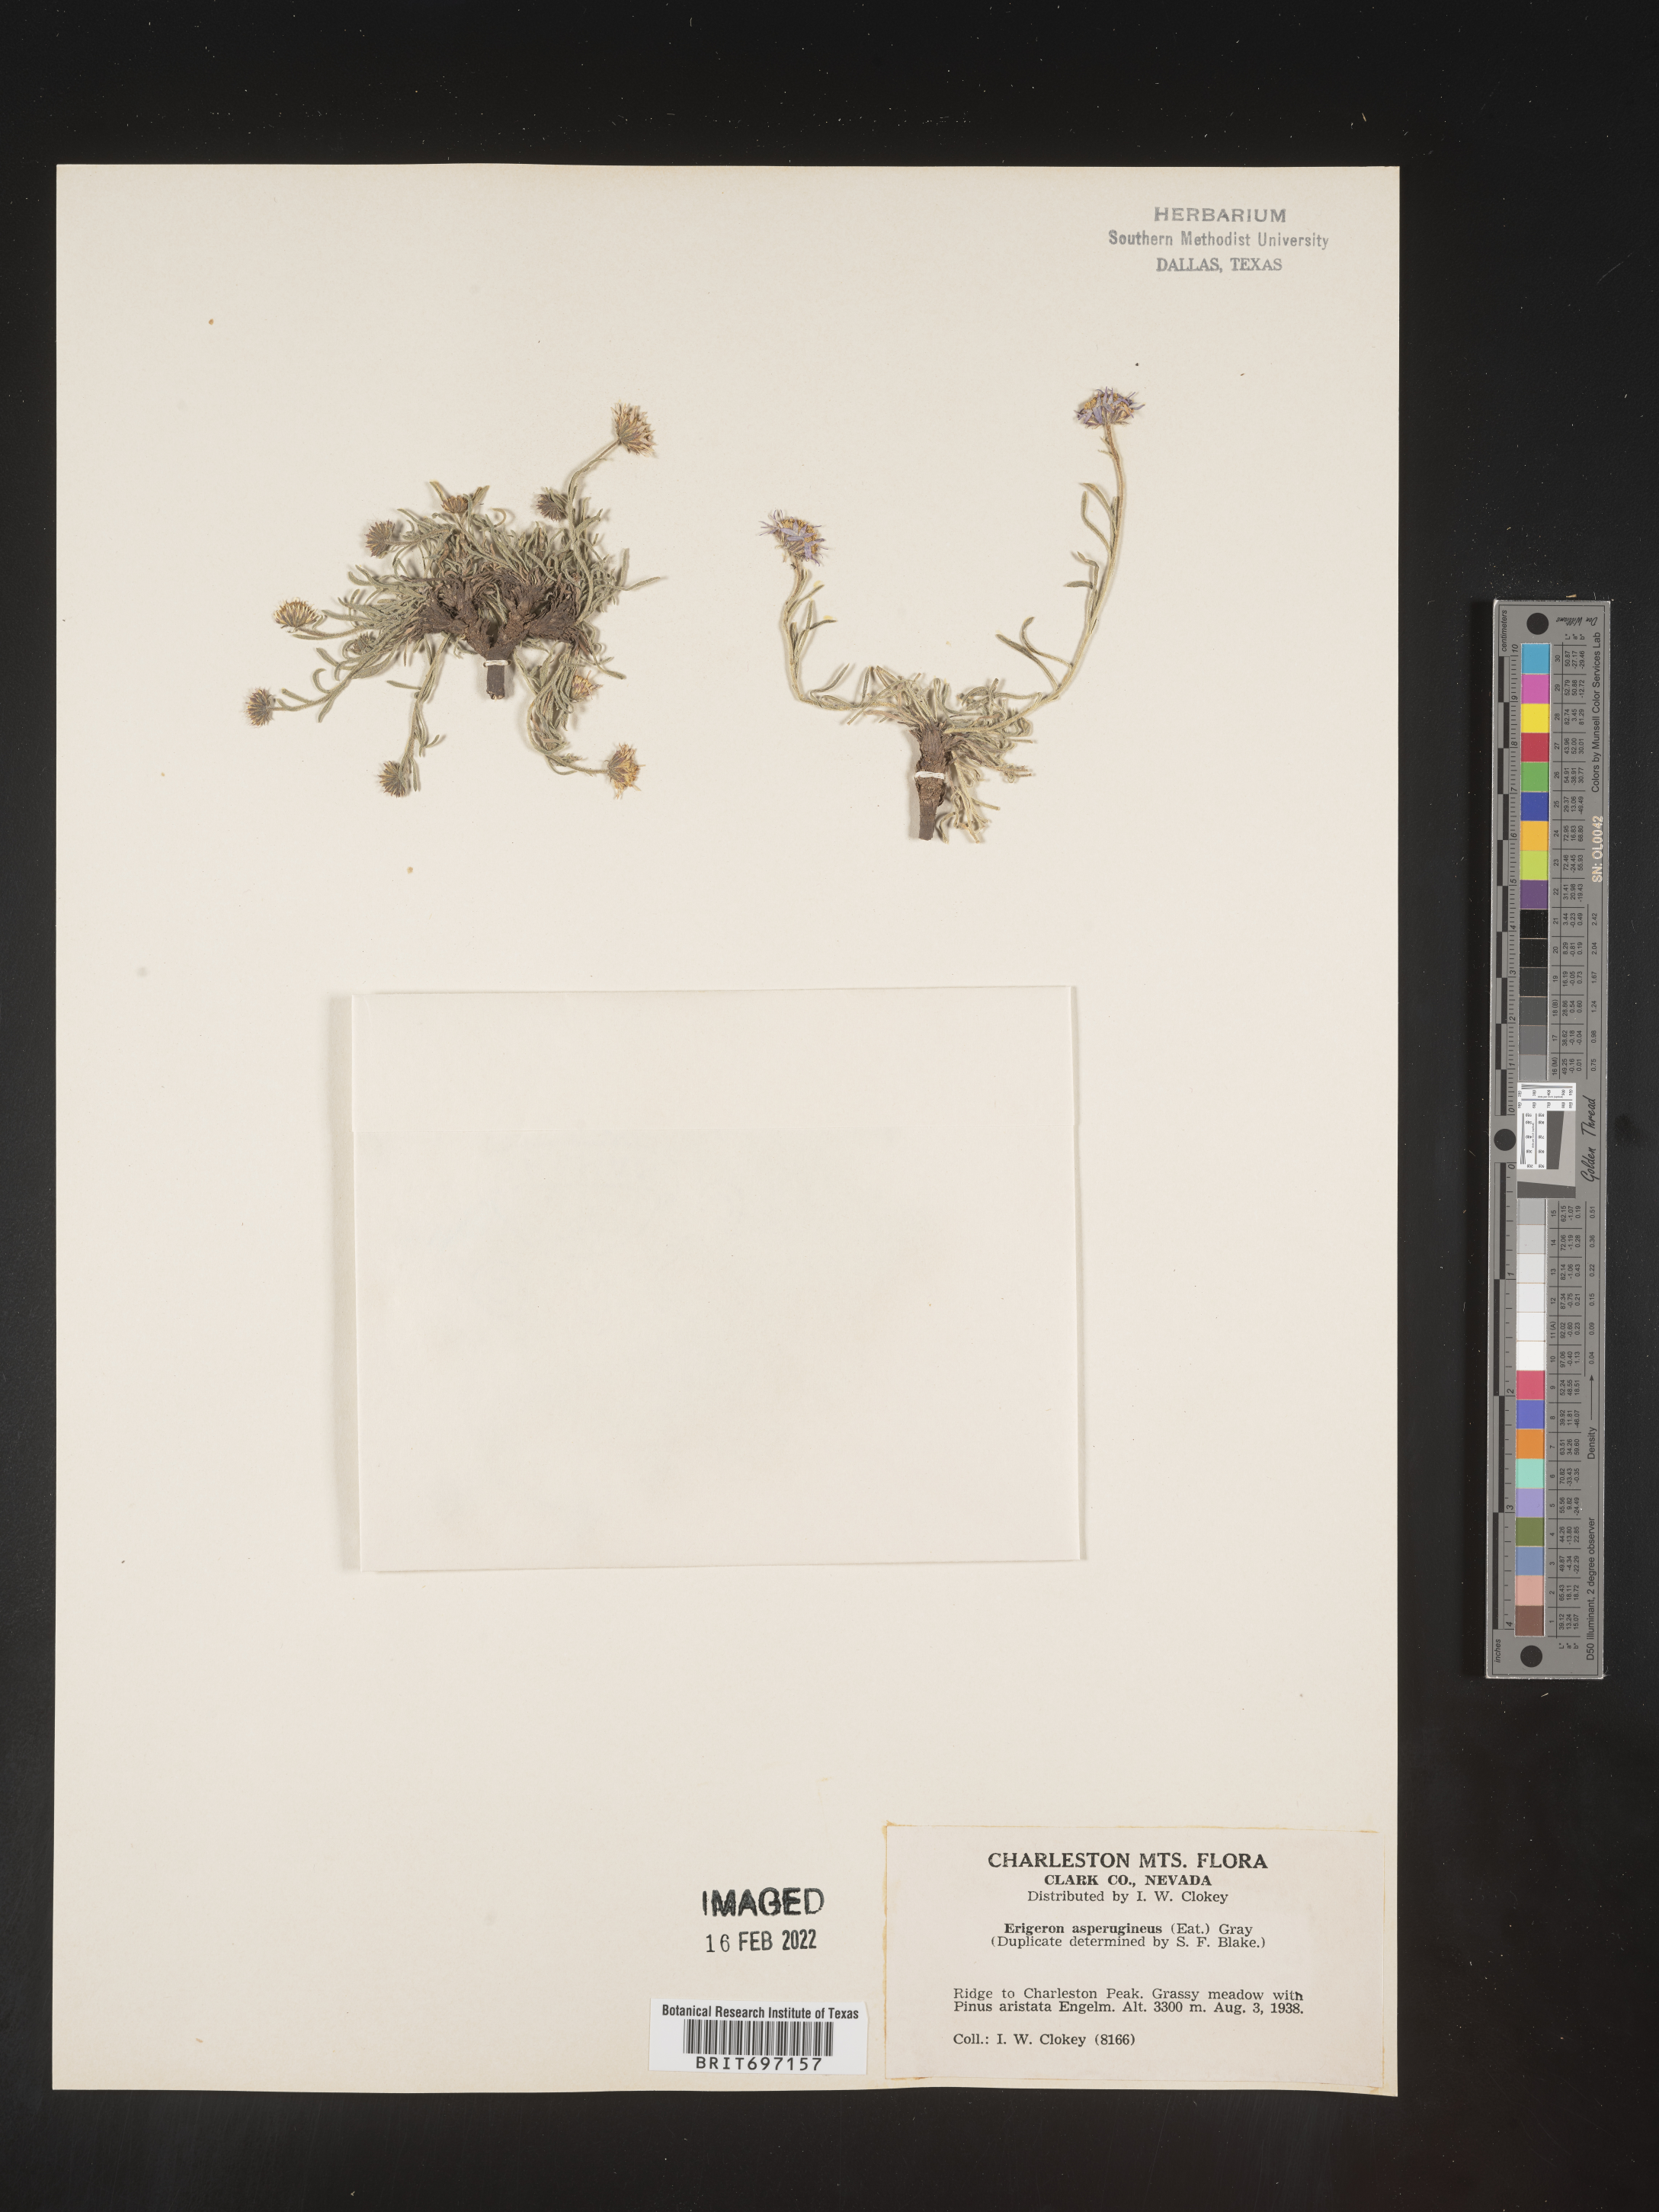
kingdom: Plantae
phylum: Tracheophyta
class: Magnoliopsida
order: Asterales
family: Asteraceae
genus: Erigeron
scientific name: Erigeron clokeyi
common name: Clokey's fleabane
